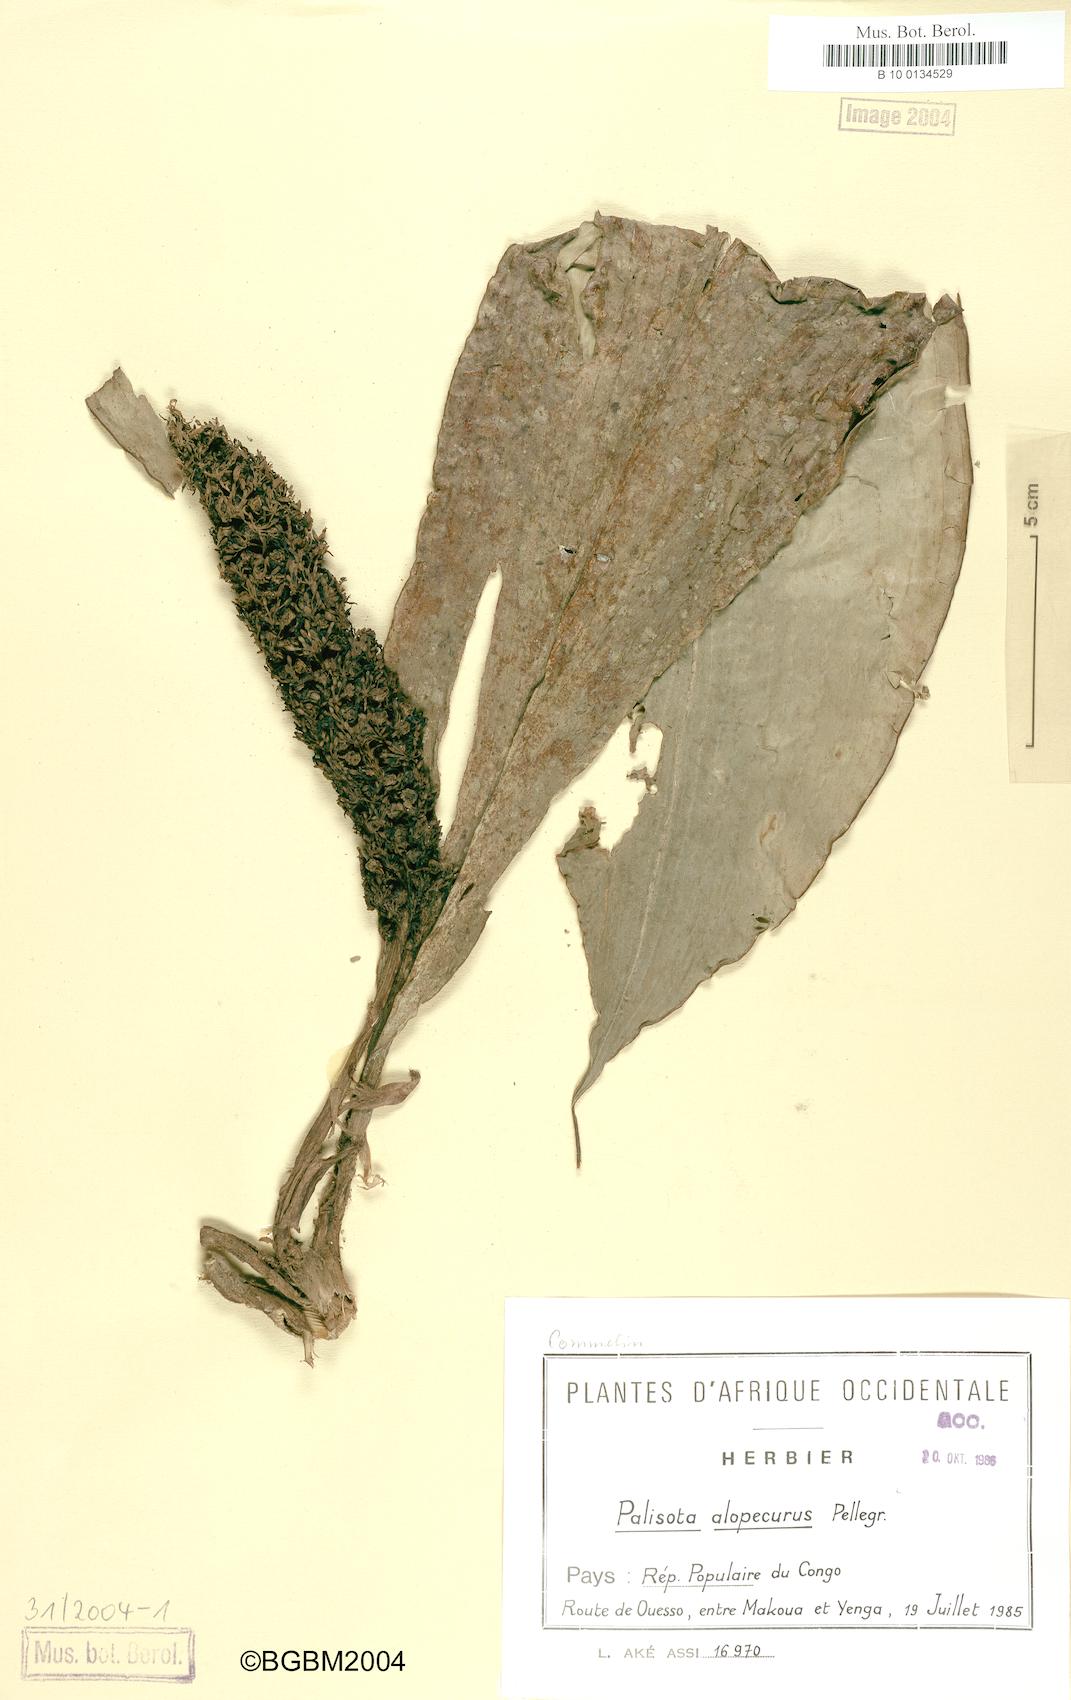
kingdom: Plantae
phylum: Tracheophyta
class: Liliopsida
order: Commelinales
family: Commelinaceae
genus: Palisota
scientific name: Palisota alopecurus
